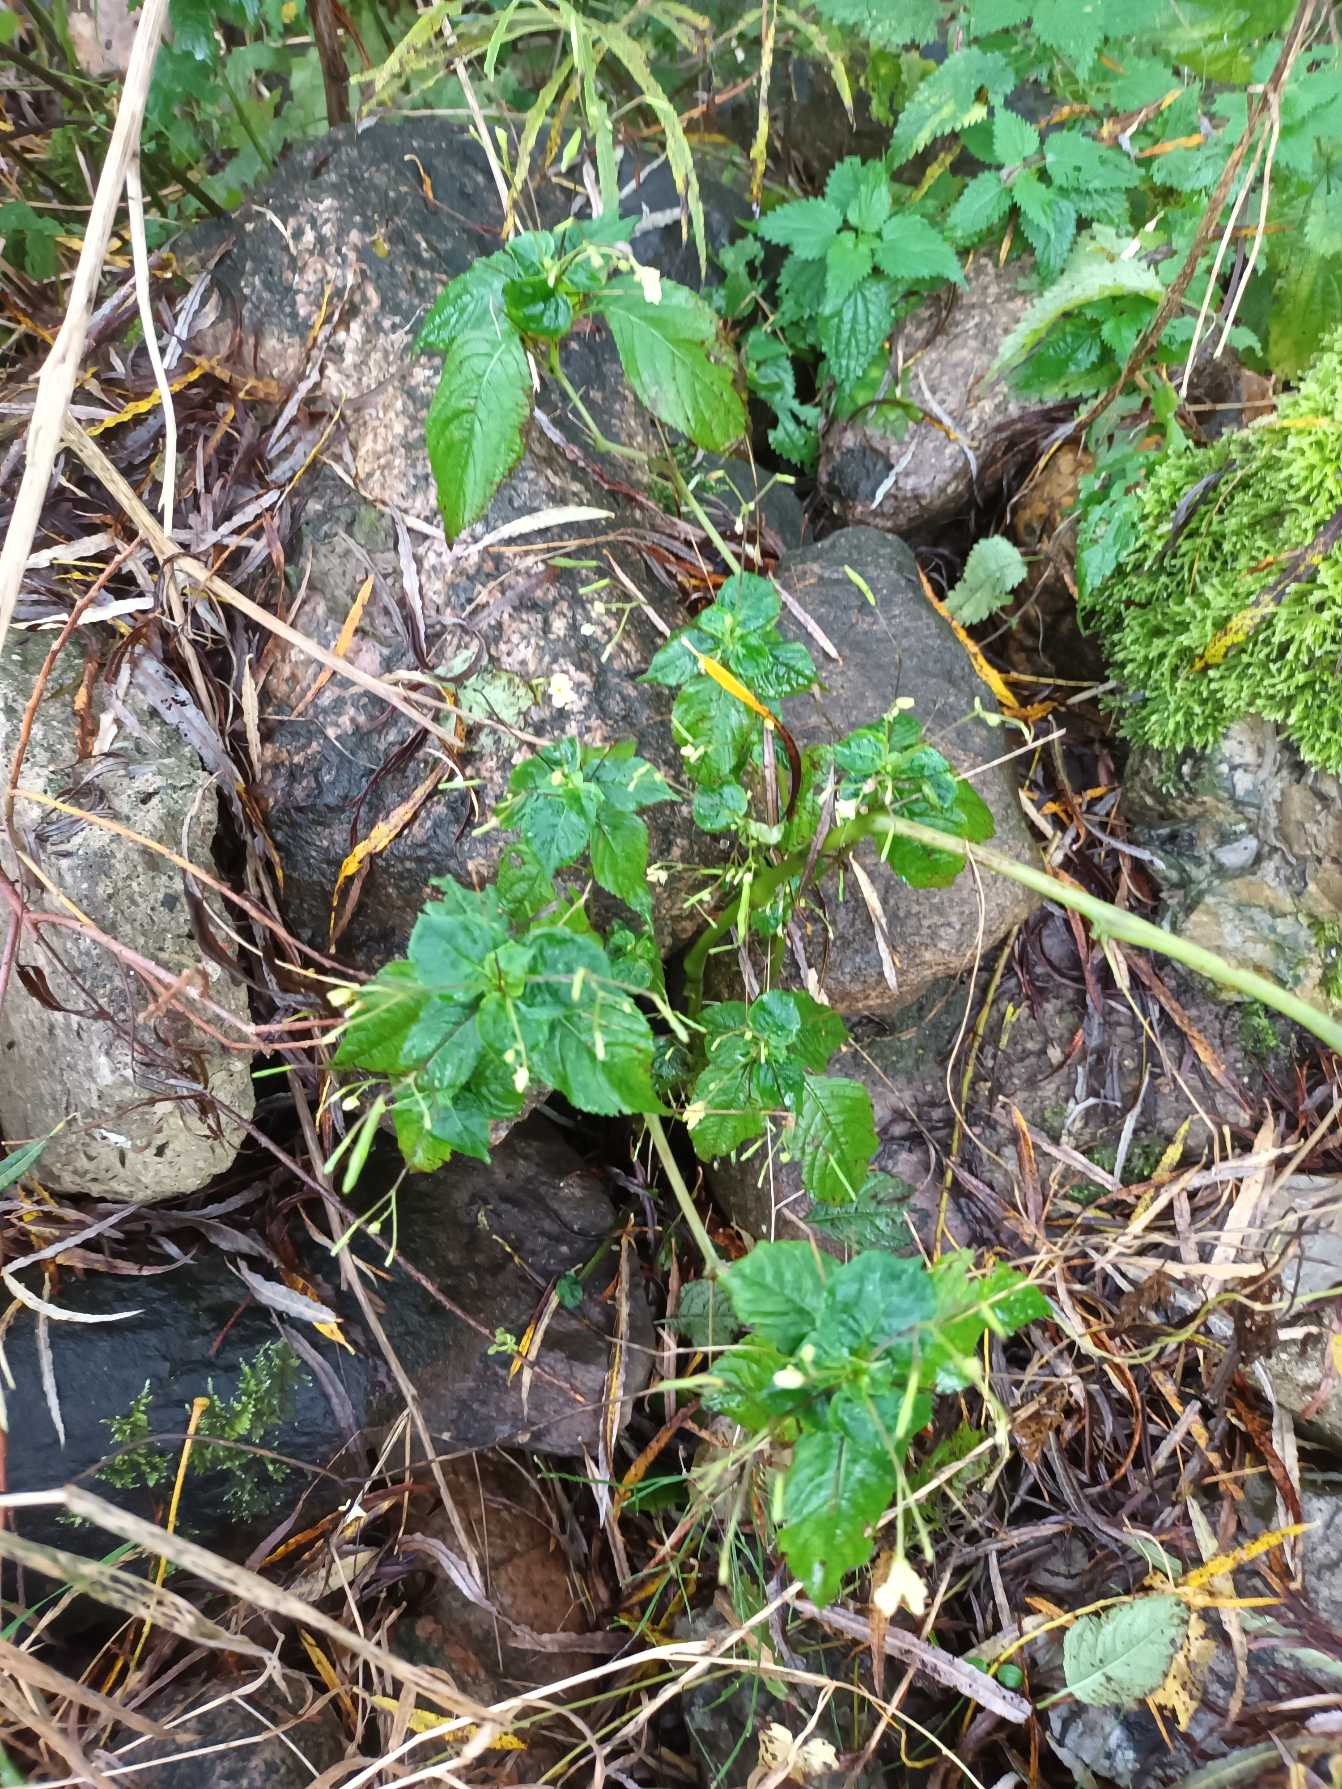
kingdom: Plantae
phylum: Tracheophyta
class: Magnoliopsida
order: Ericales
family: Balsaminaceae
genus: Impatiens
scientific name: Impatiens parviflora
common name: Småblomstret balsamin
